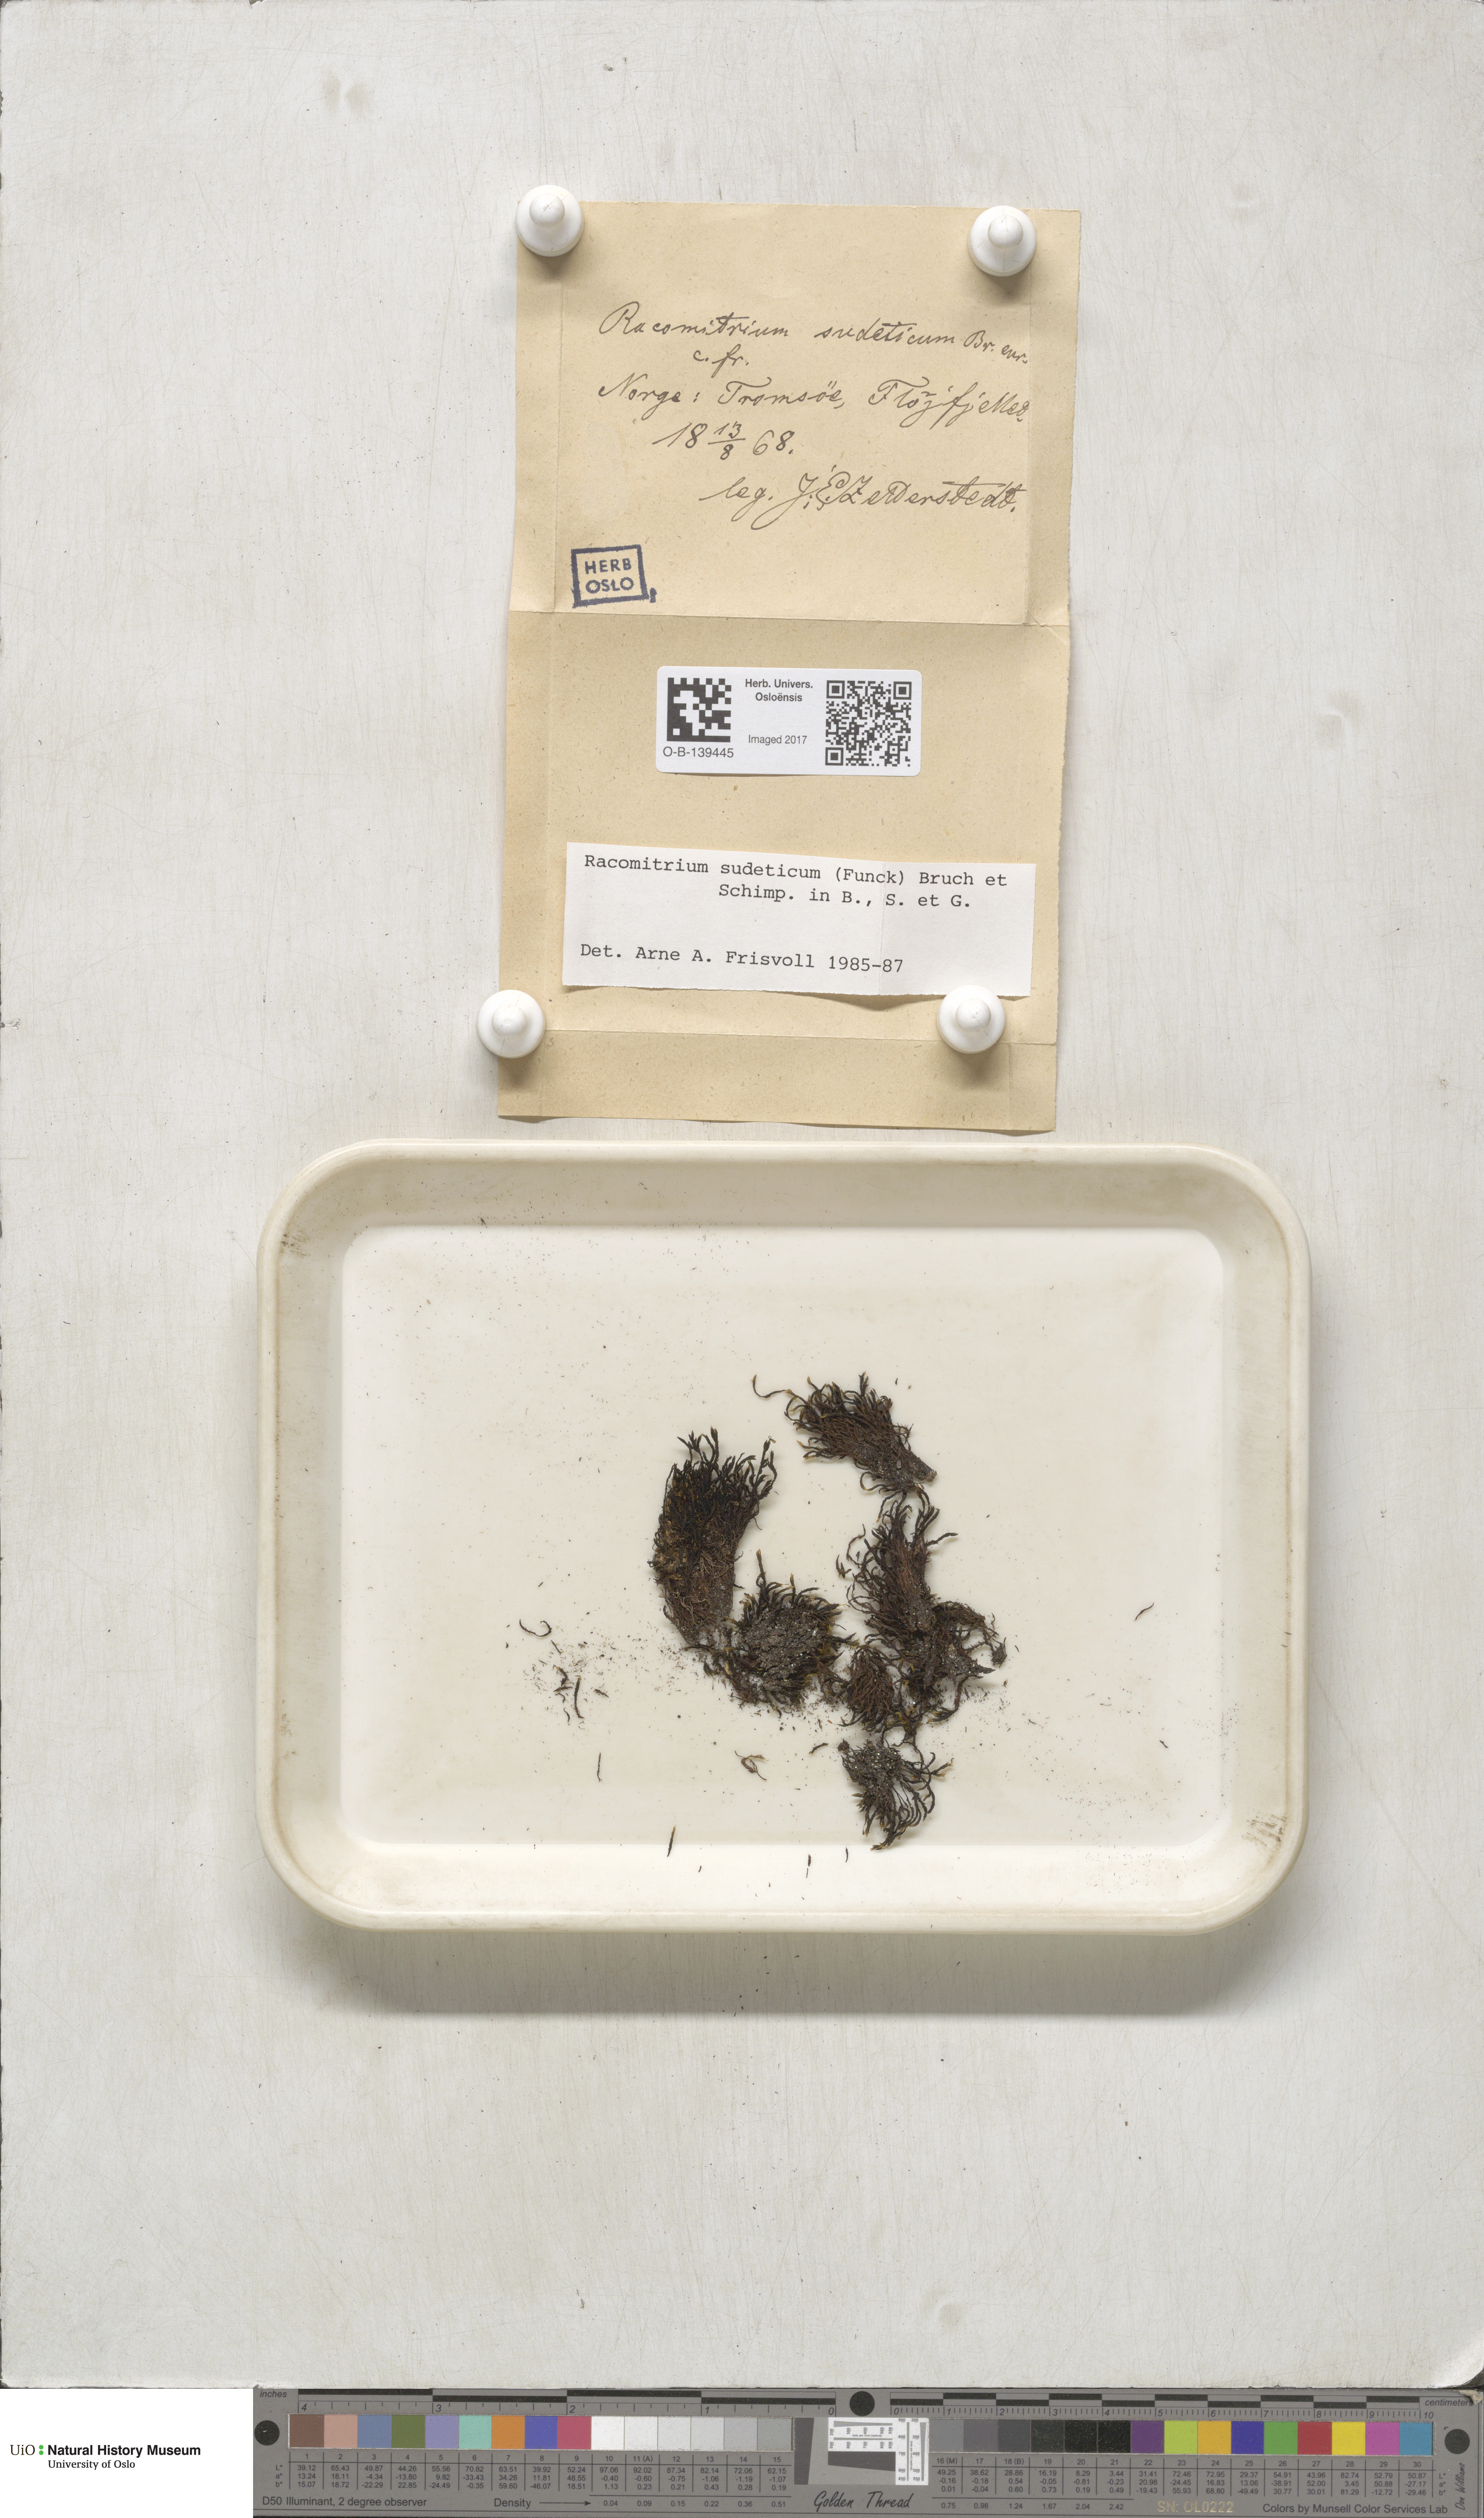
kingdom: Plantae
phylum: Bryophyta
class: Bryopsida
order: Grimmiales
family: Grimmiaceae
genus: Bucklandiella
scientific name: Bucklandiella sudetica
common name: Slender fringe-moss
